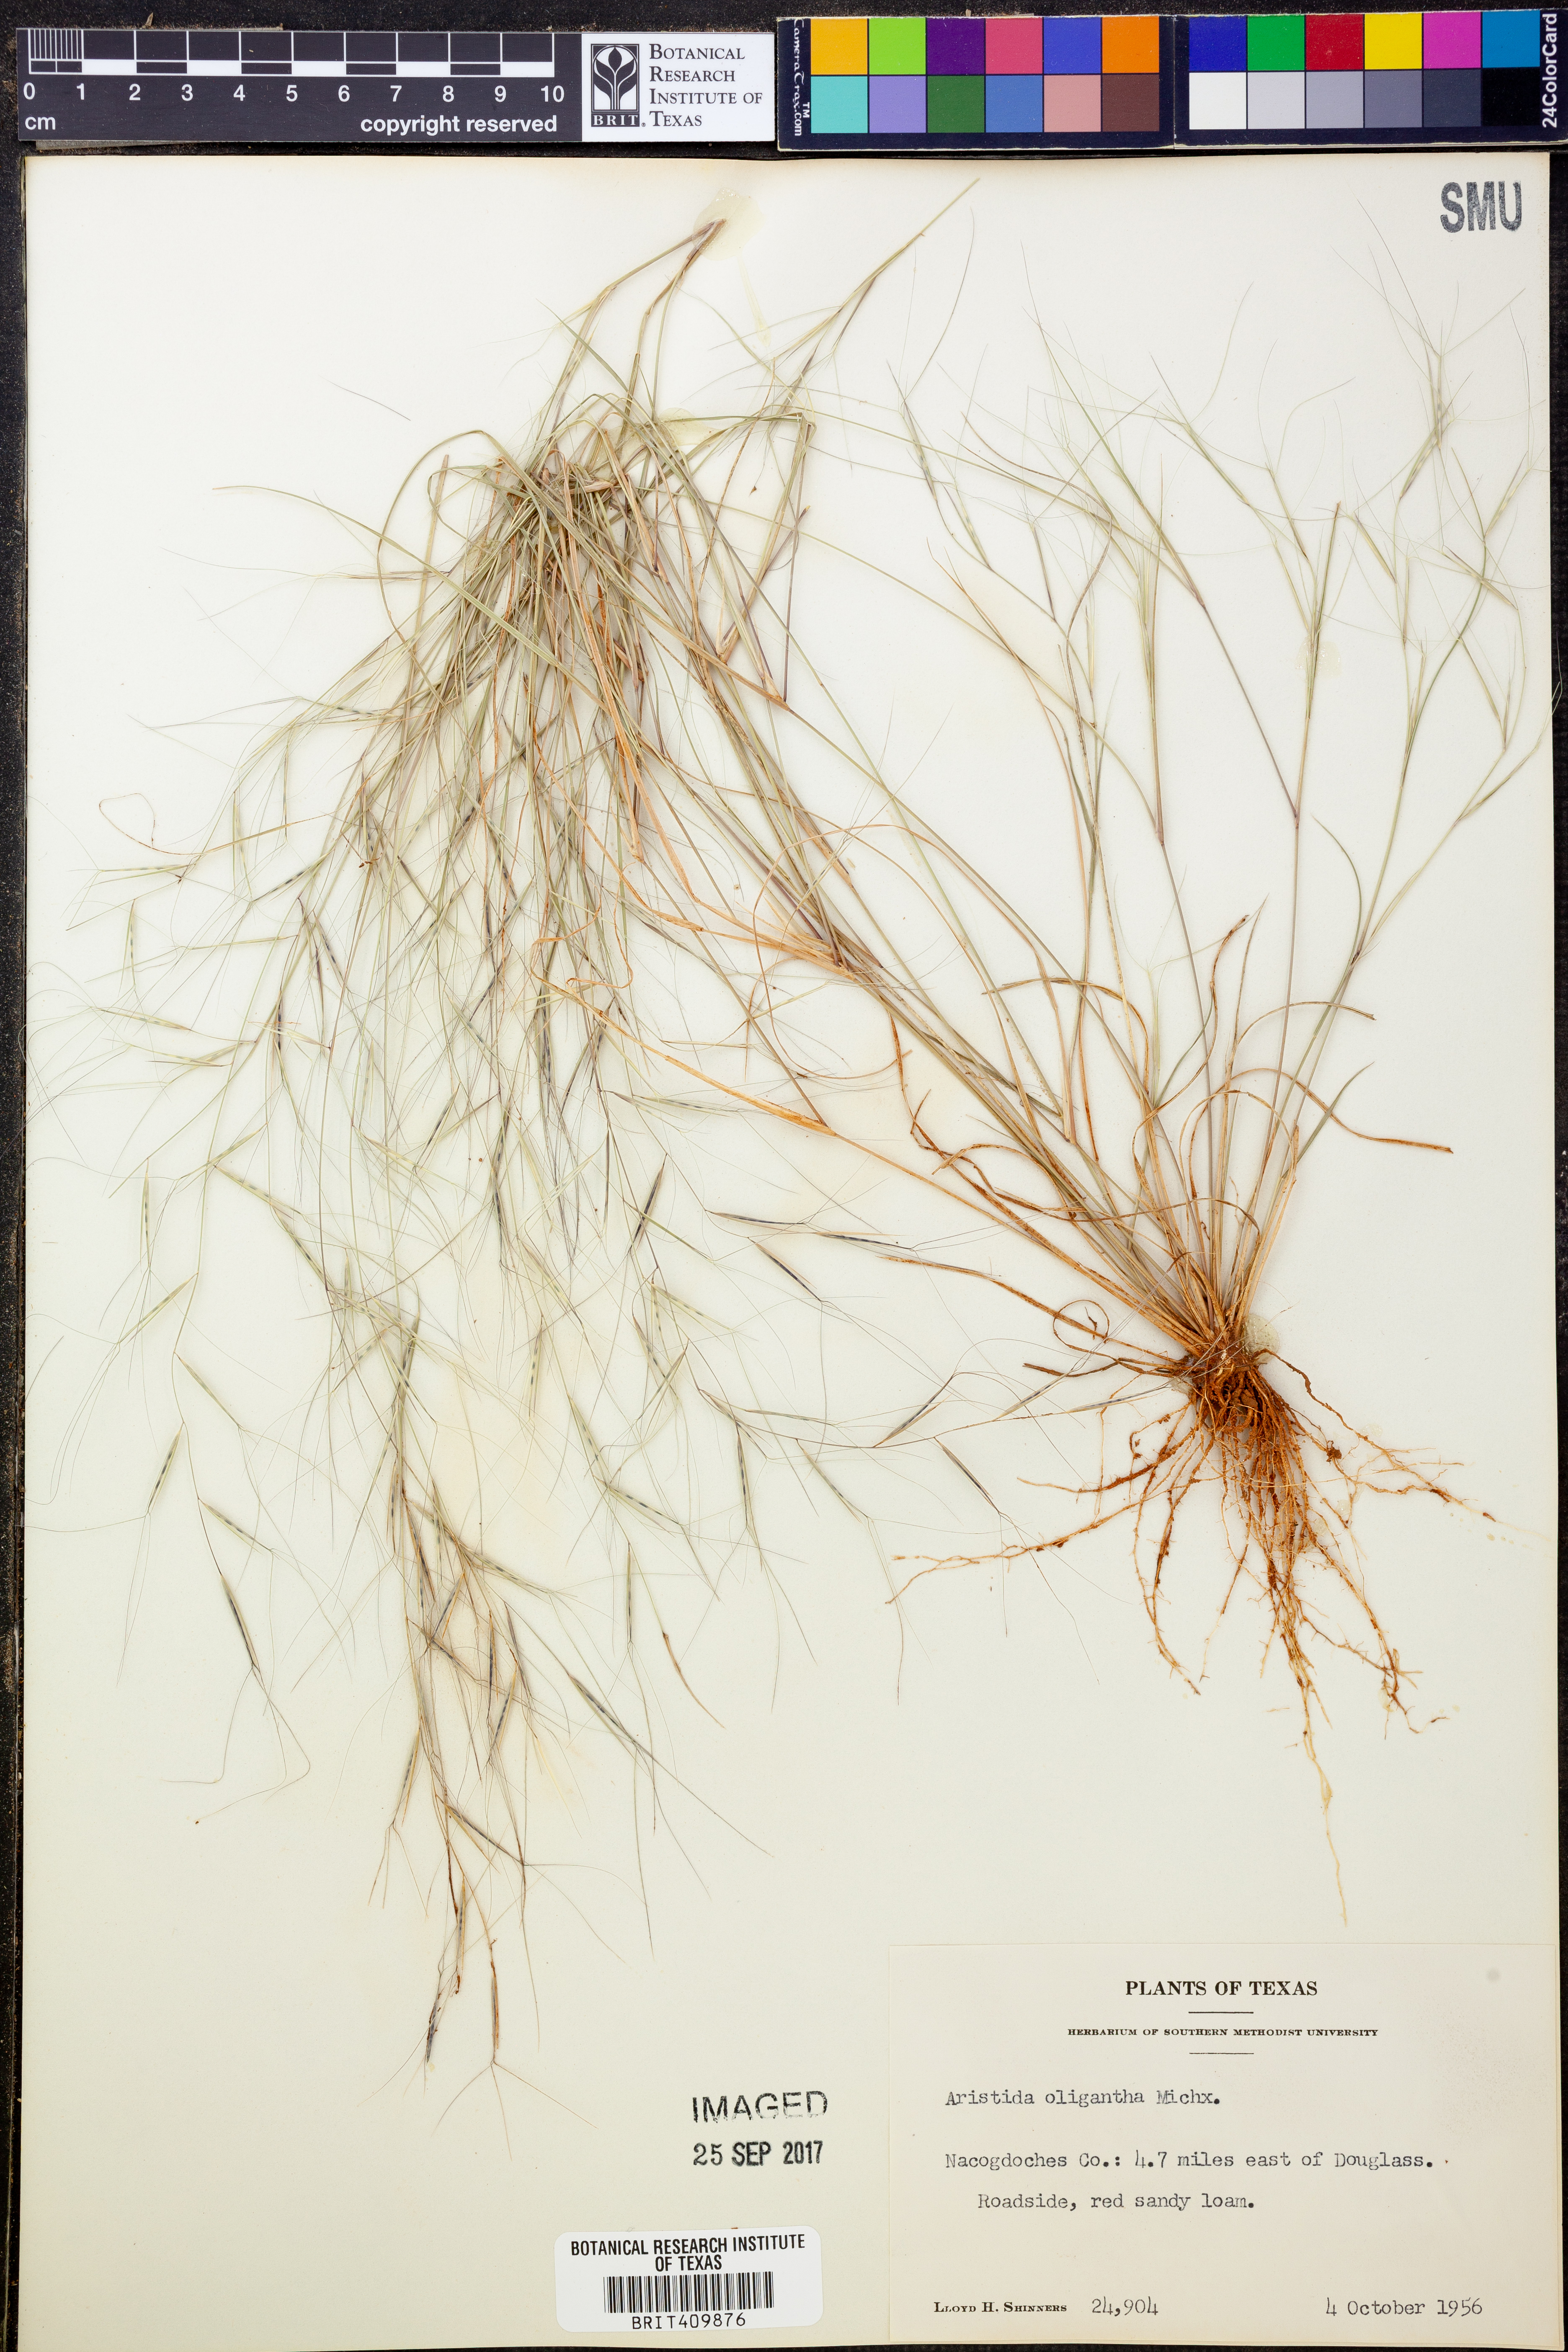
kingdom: Plantae
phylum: Tracheophyta
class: Liliopsida
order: Poales
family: Poaceae
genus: Aristida
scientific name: Aristida oligantha
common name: Few-flowered aristida
